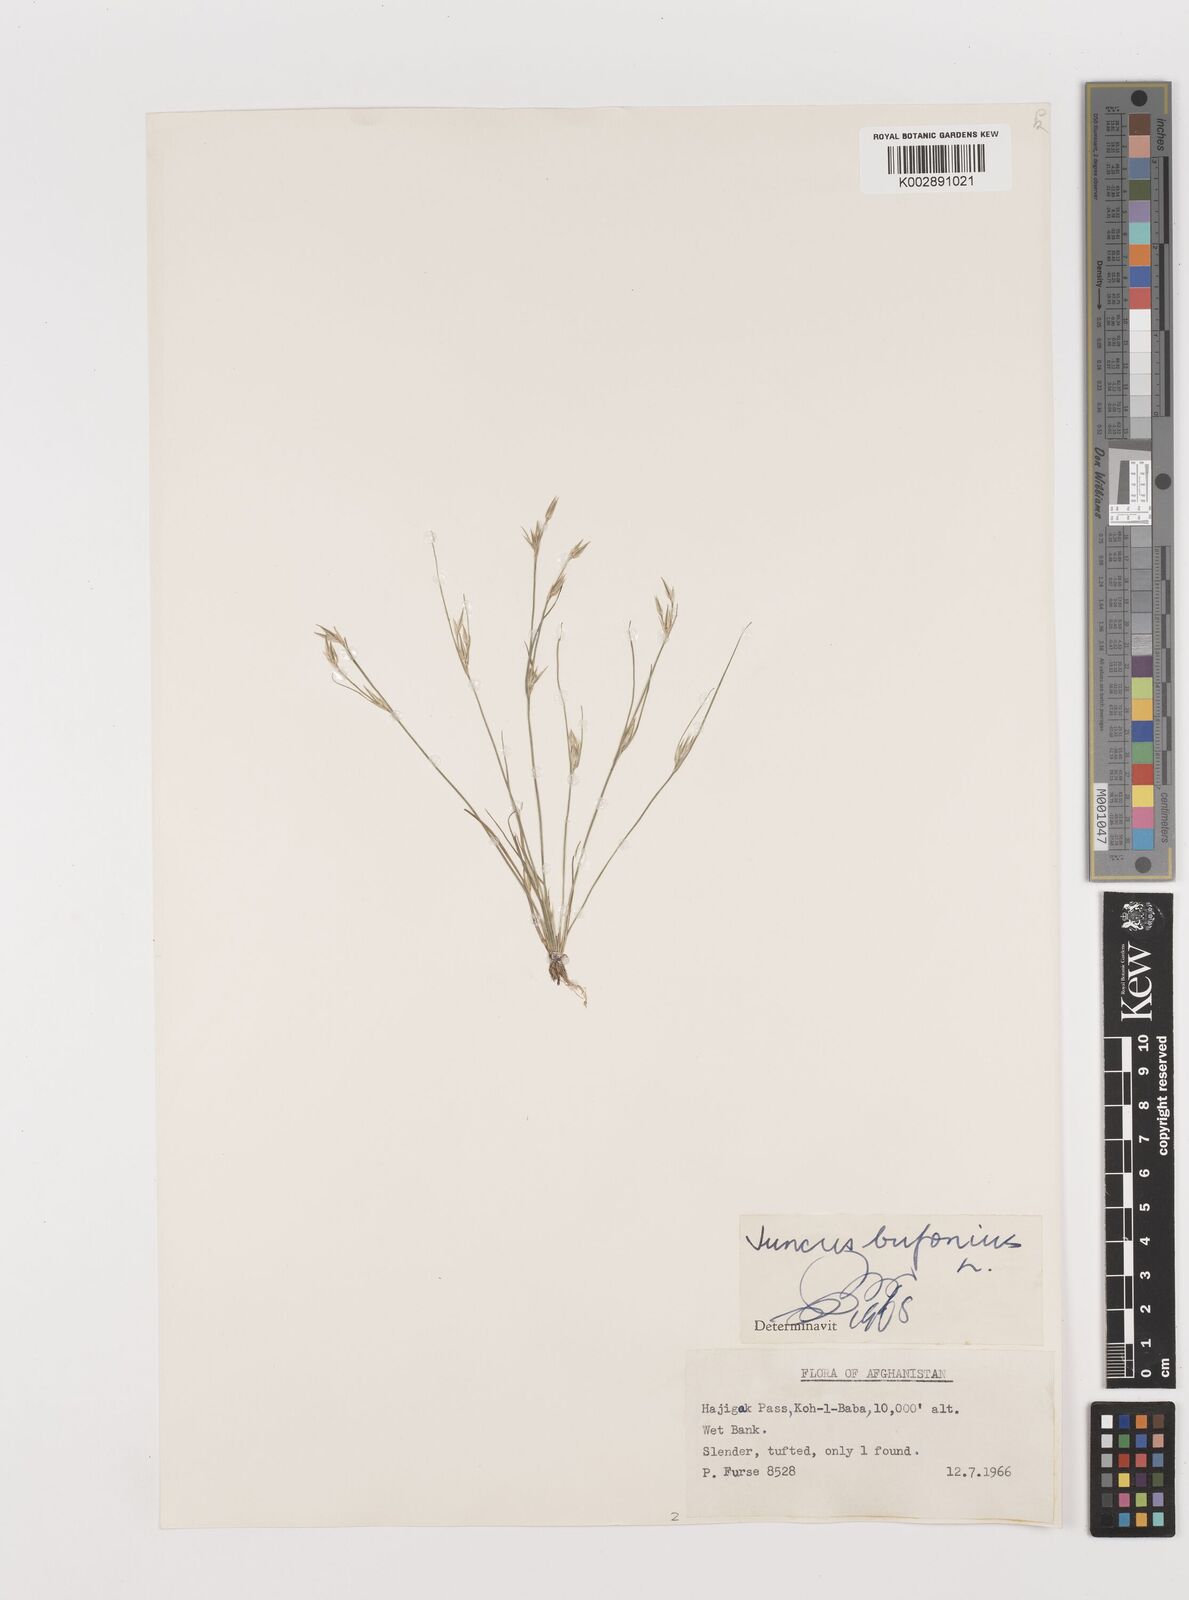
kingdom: Plantae
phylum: Tracheophyta
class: Liliopsida
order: Poales
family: Juncaceae
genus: Juncus
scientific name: Juncus bufonius
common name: Toad rush
